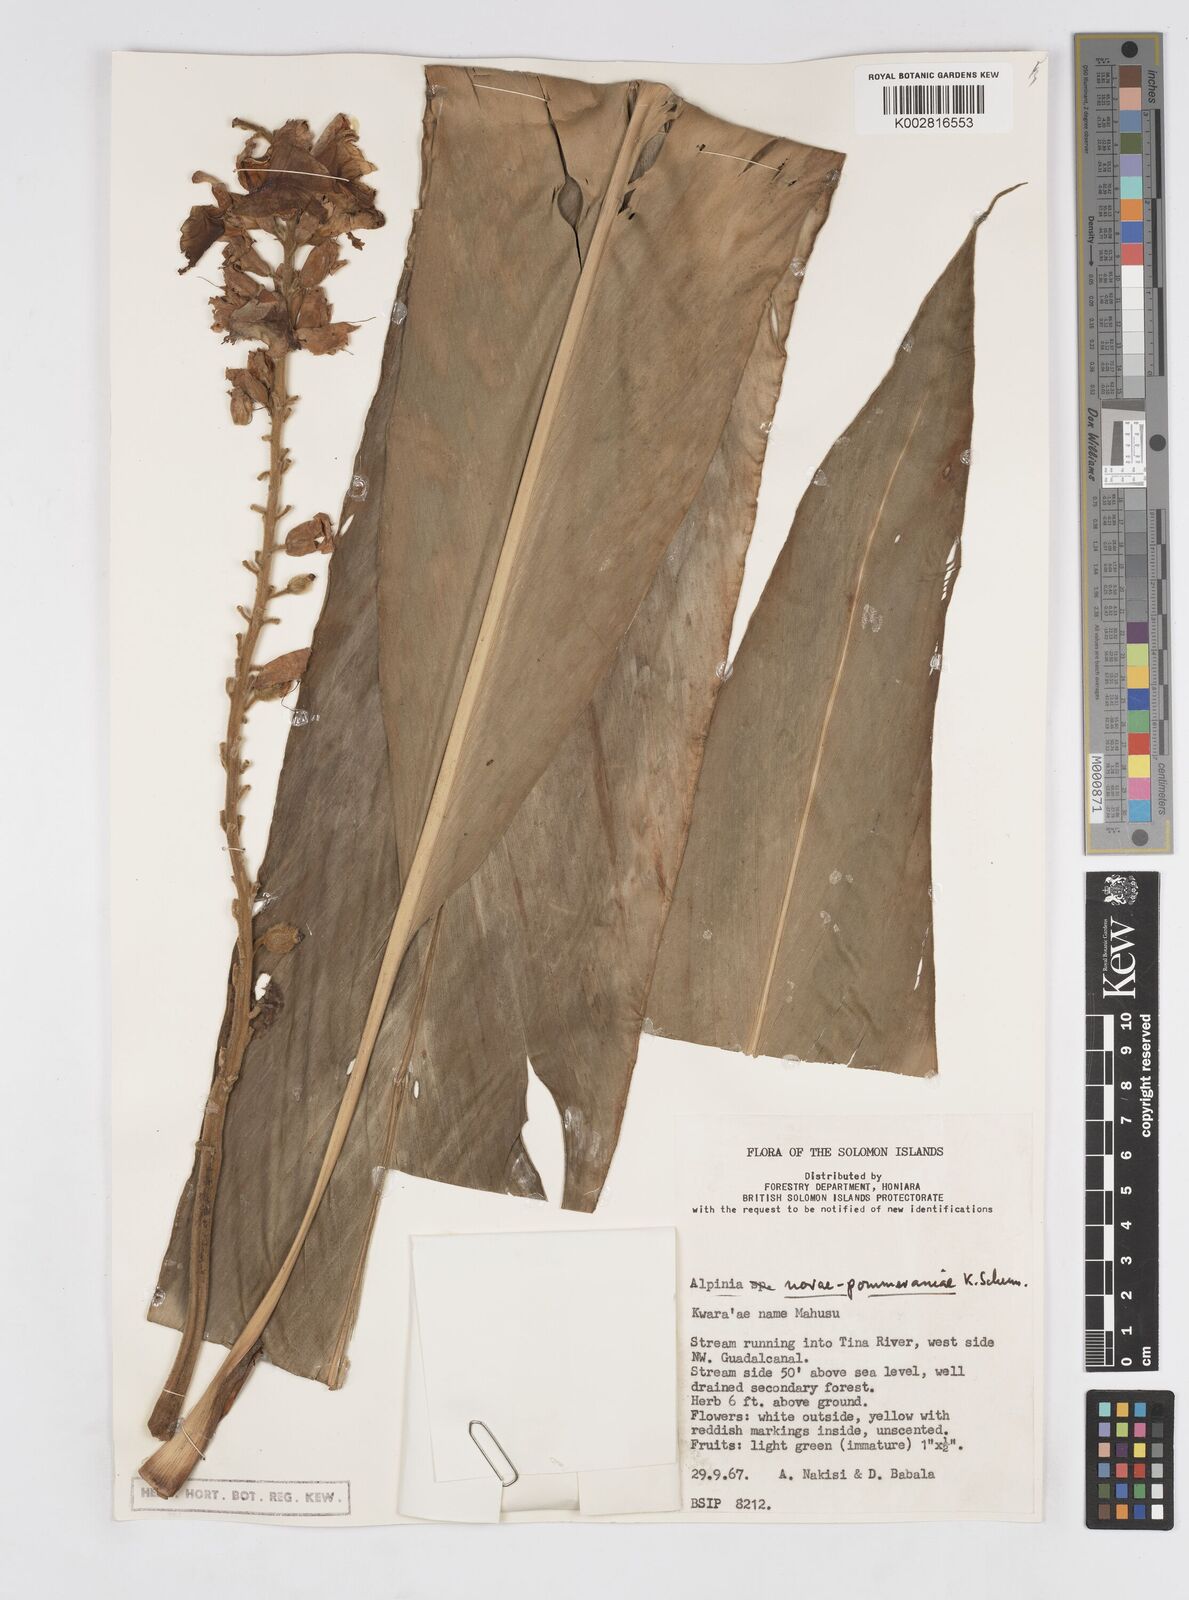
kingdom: Plantae
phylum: Tracheophyta
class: Liliopsida
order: Zingiberales
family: Zingiberaceae
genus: Alpinia
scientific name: Alpinia novae-pommeraniae
